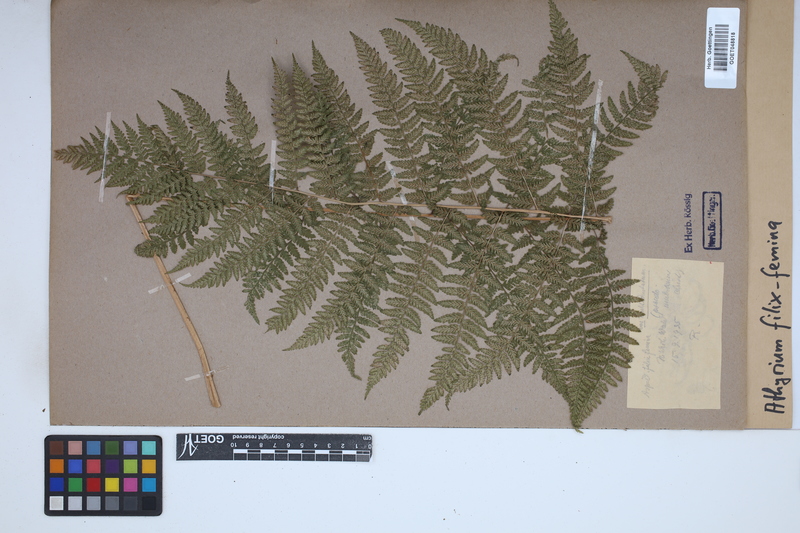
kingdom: Plantae
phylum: Tracheophyta
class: Polypodiopsida
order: Polypodiales
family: Athyriaceae
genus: Athyrium
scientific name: Athyrium filix-femina
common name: Lady fern
